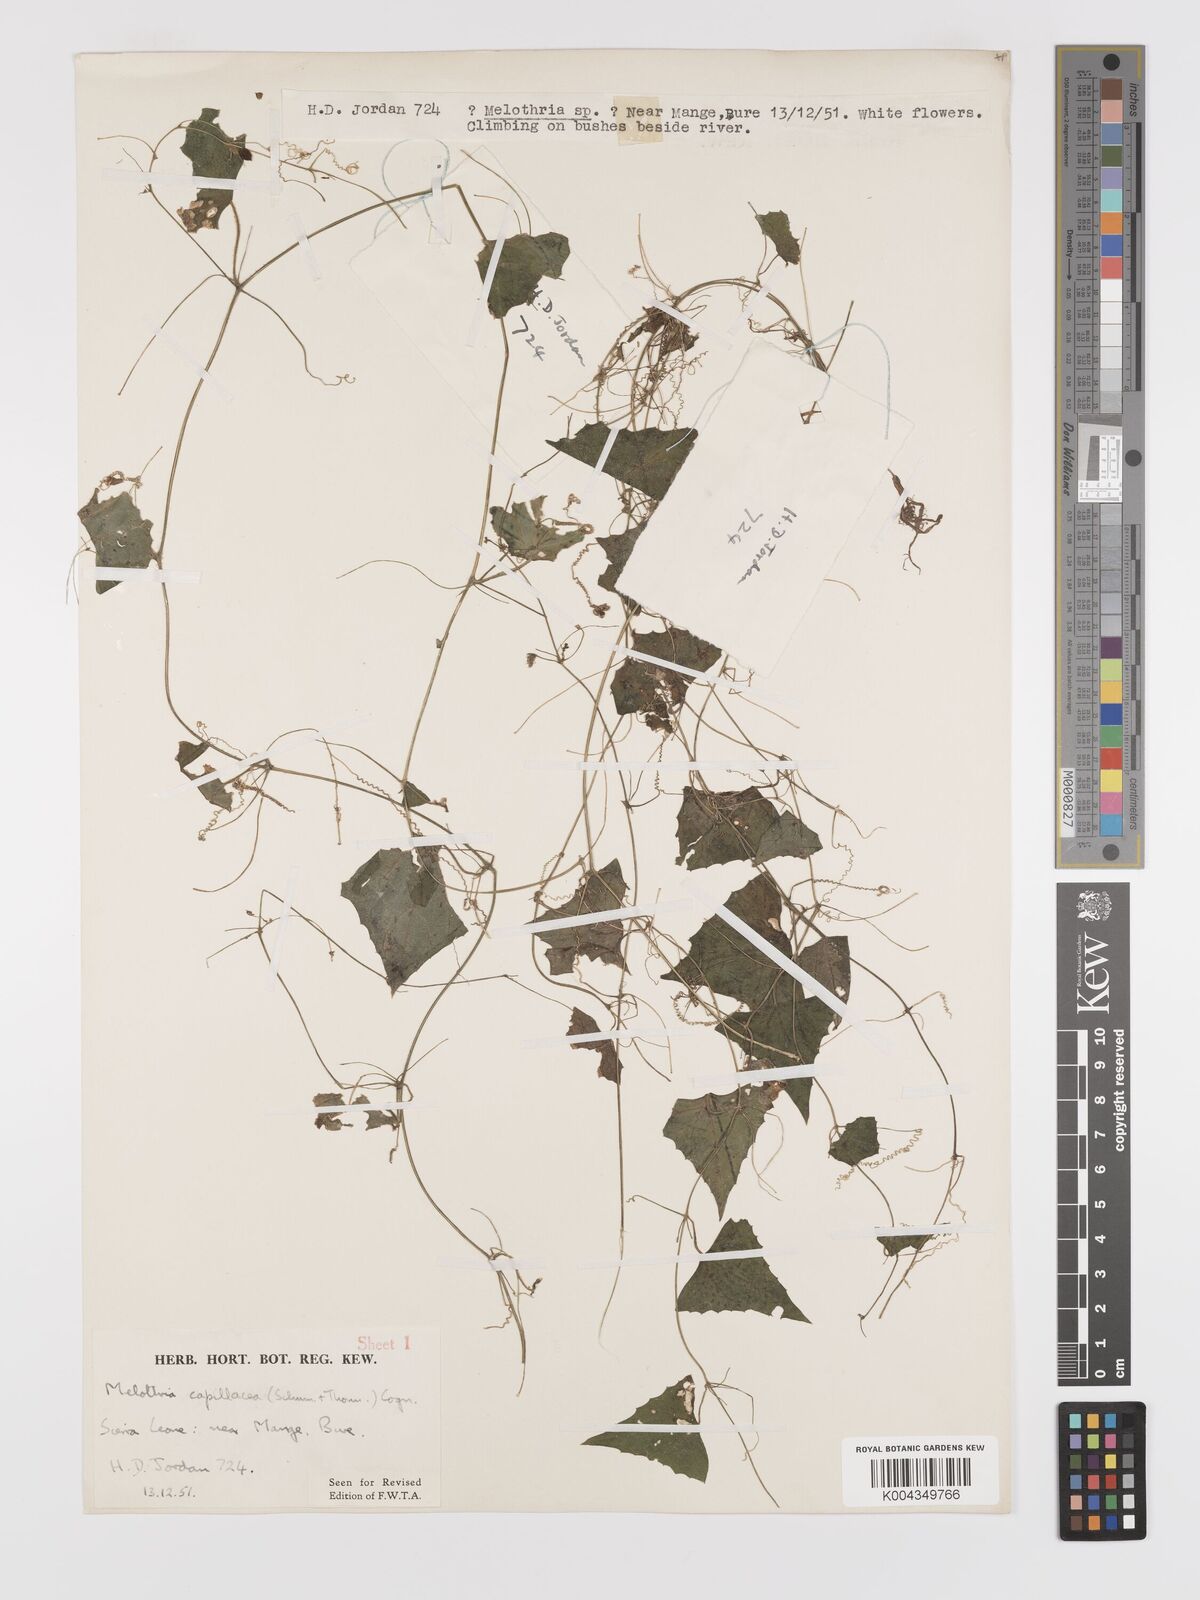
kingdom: Plantae
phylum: Tracheophyta
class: Magnoliopsida
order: Cucurbitales
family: Cucurbitaceae
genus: Zehneria
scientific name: Zehneria capillacea
